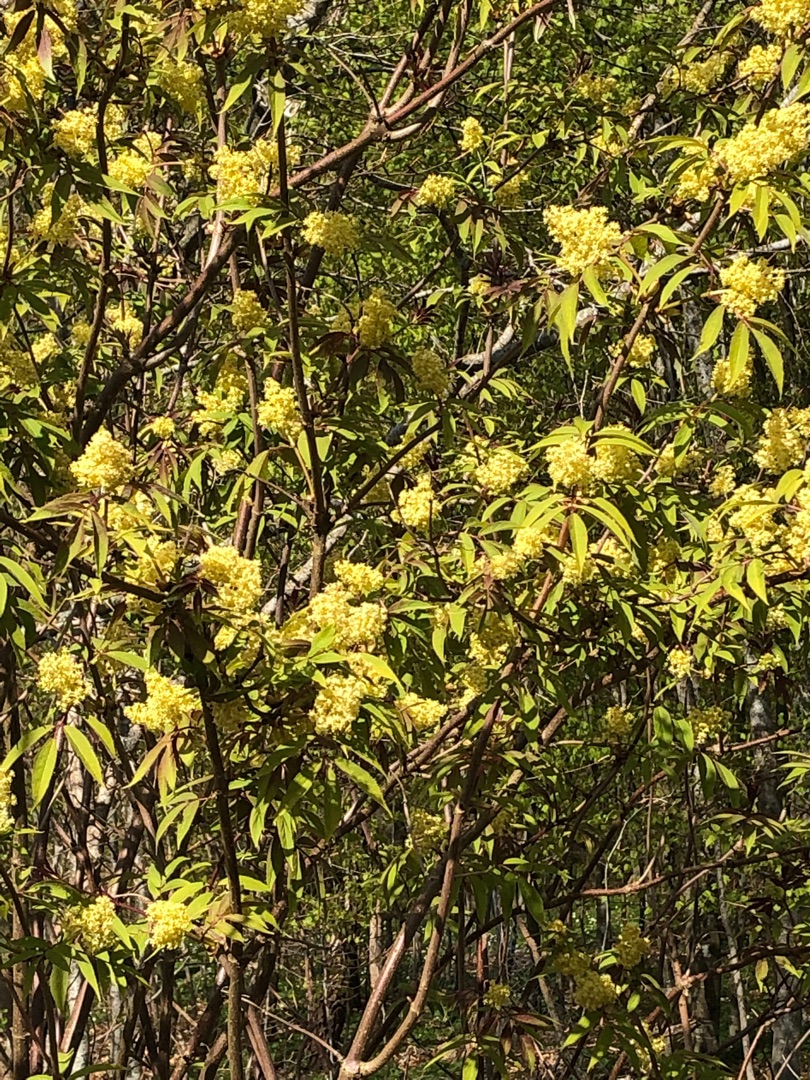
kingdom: Plantae
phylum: Tracheophyta
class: Magnoliopsida
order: Dipsacales
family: Viburnaceae
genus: Sambucus
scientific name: Sambucus racemosa
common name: Drue-hyld
